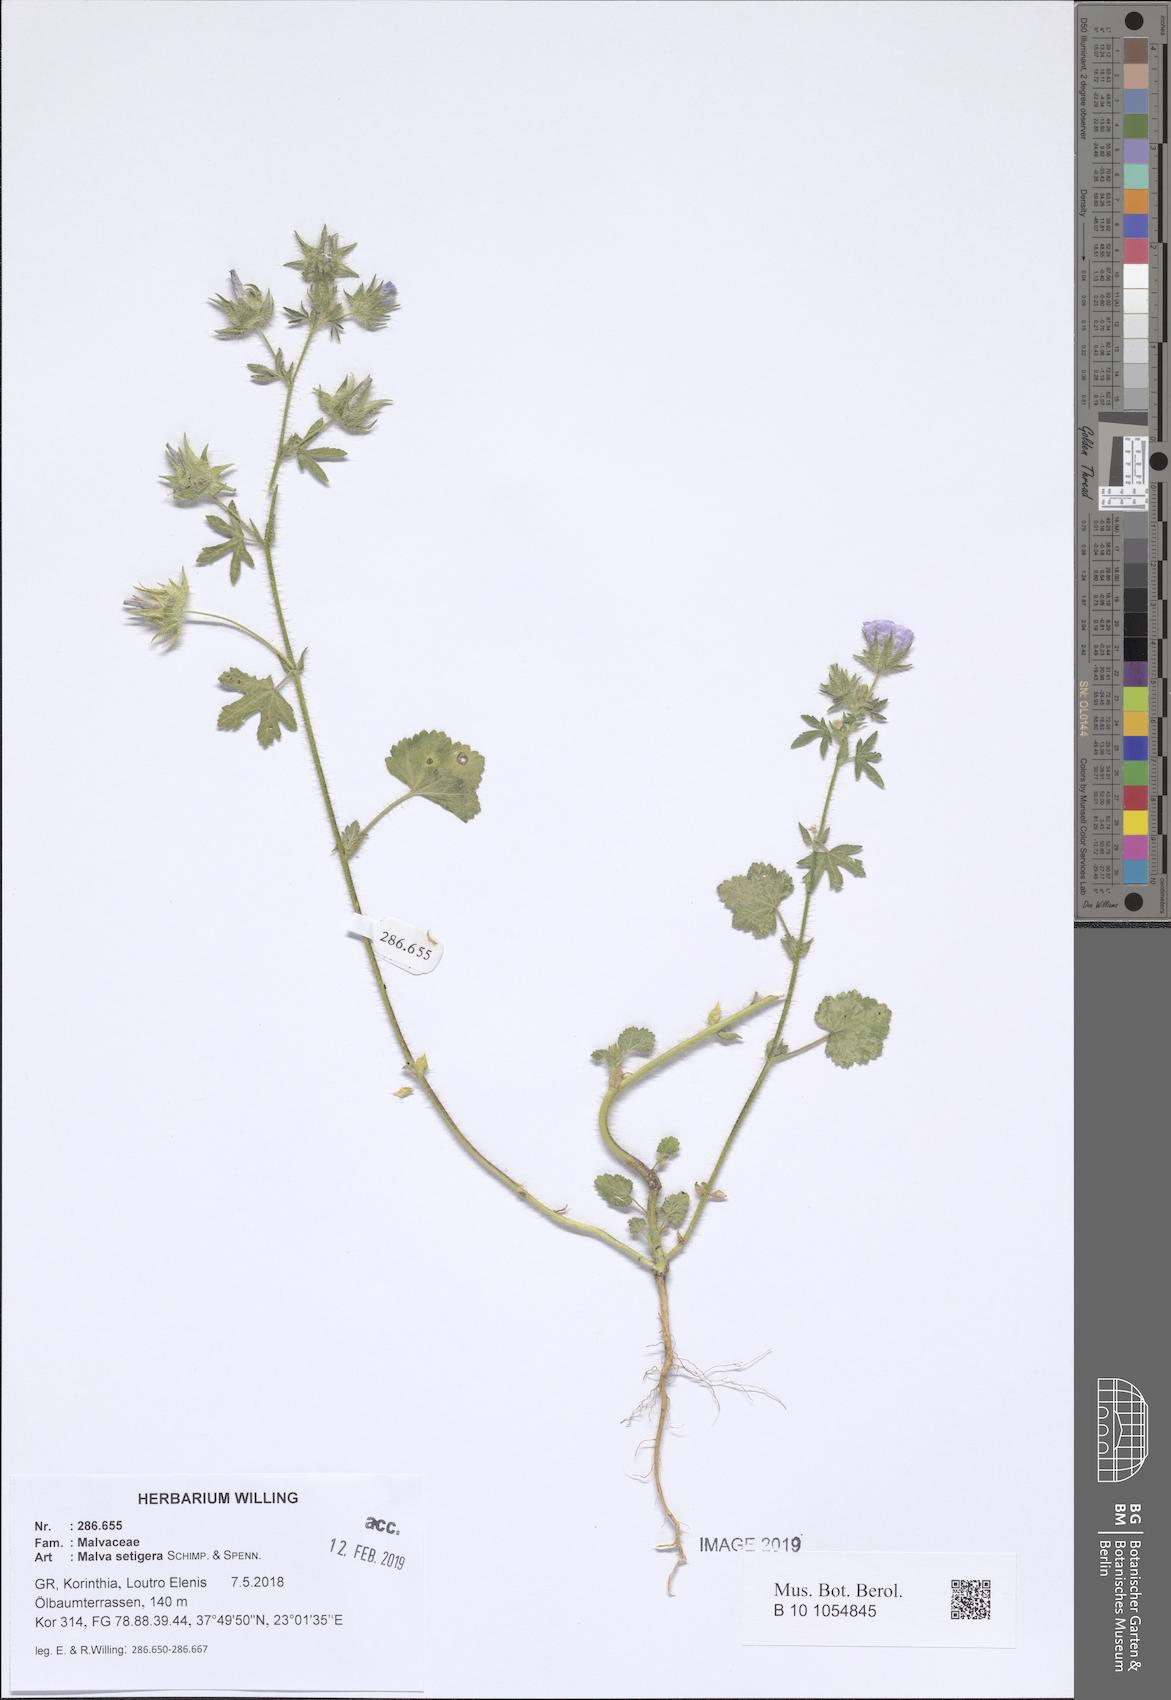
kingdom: Plantae
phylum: Tracheophyta
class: Magnoliopsida
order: Malvales
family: Malvaceae
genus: Althaea
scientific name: Althaea hirsuta
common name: Rough marsh-mallow
